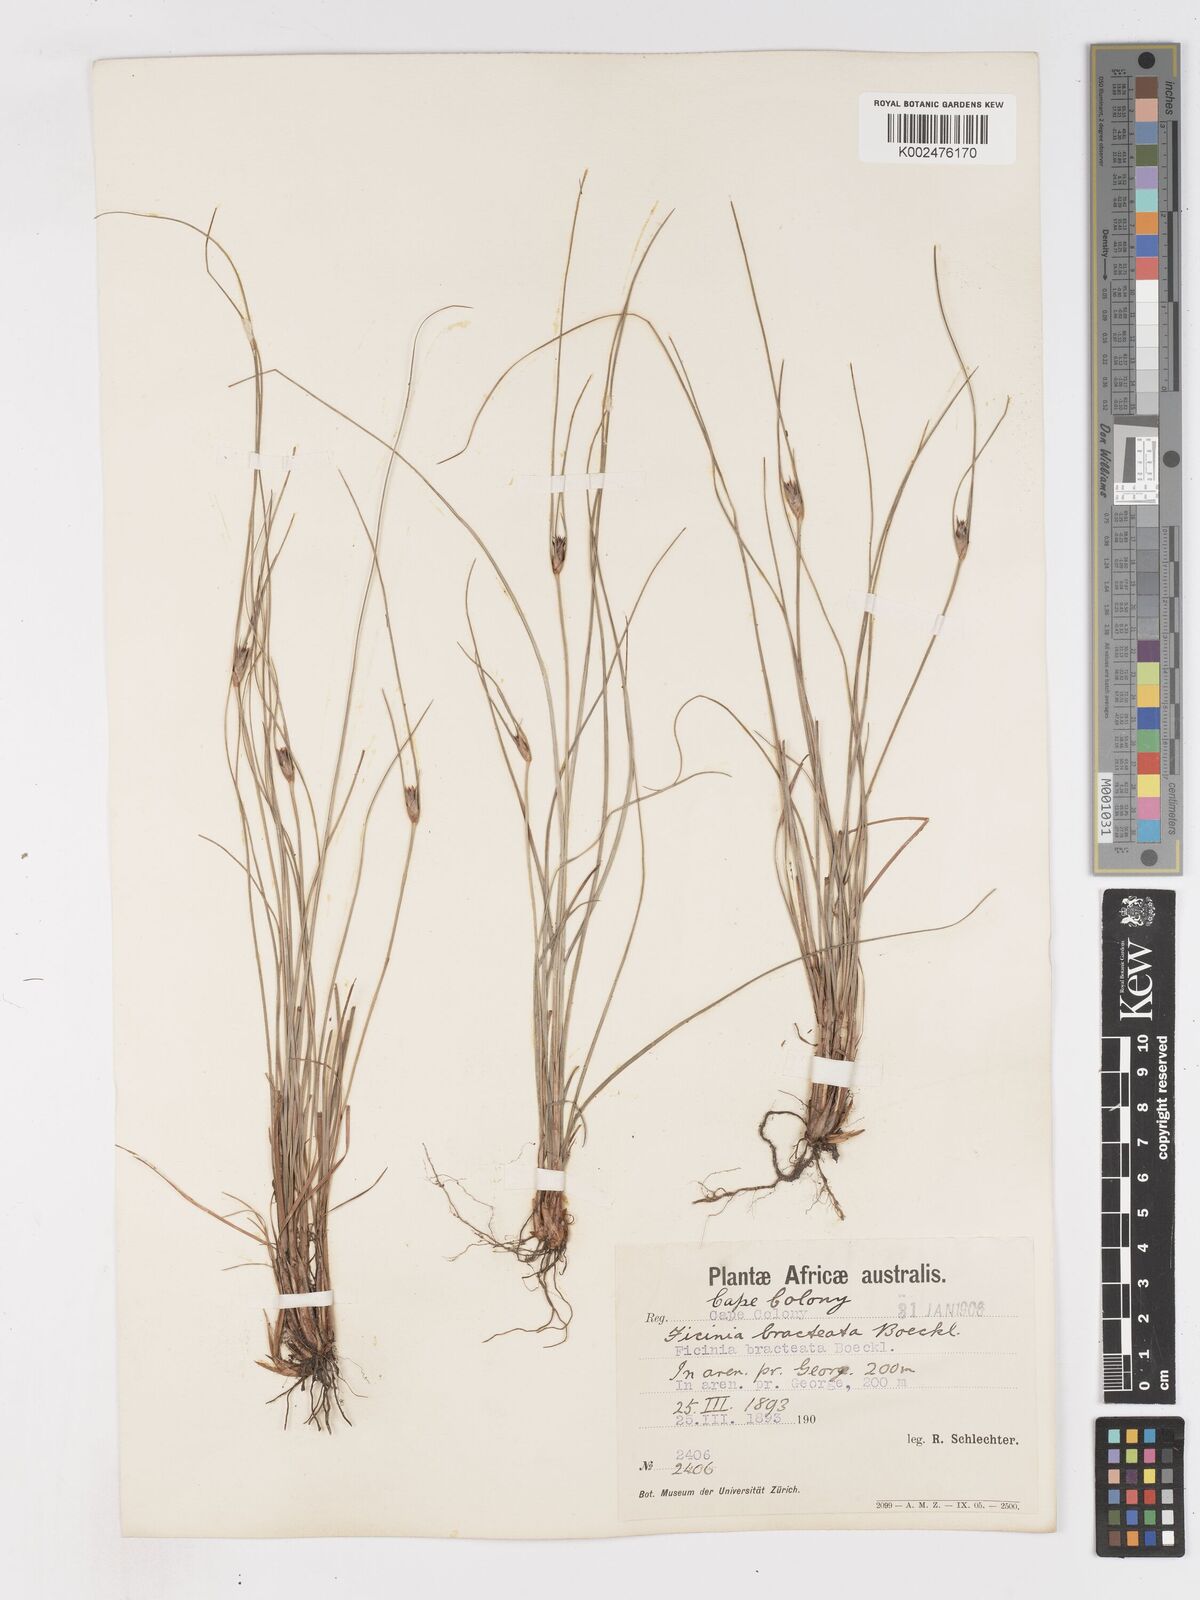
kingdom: Plantae
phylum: Tracheophyta
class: Liliopsida
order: Poales
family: Cyperaceae
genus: Ficinia
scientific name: Ficinia nigrescens
